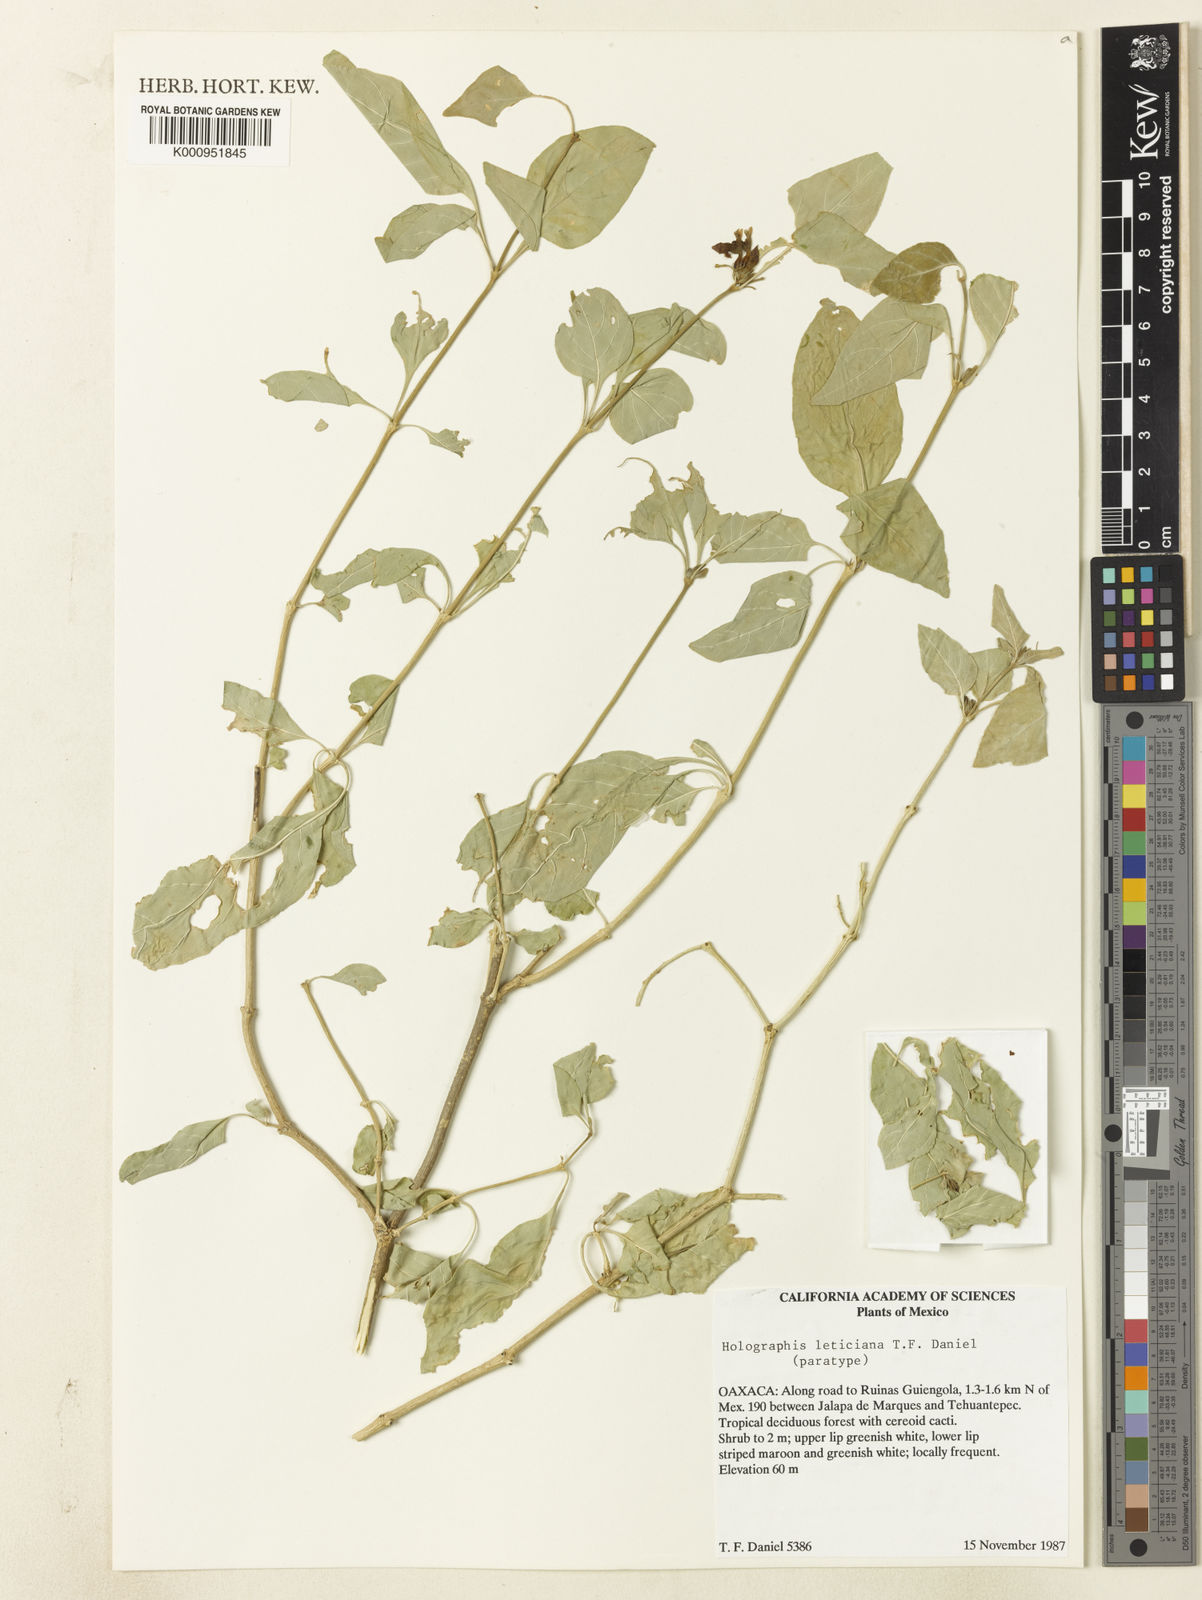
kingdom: Plantae
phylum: Tracheophyta
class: Magnoliopsida
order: Lamiales
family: Acanthaceae
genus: Holographis
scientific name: Holographis leticiana
